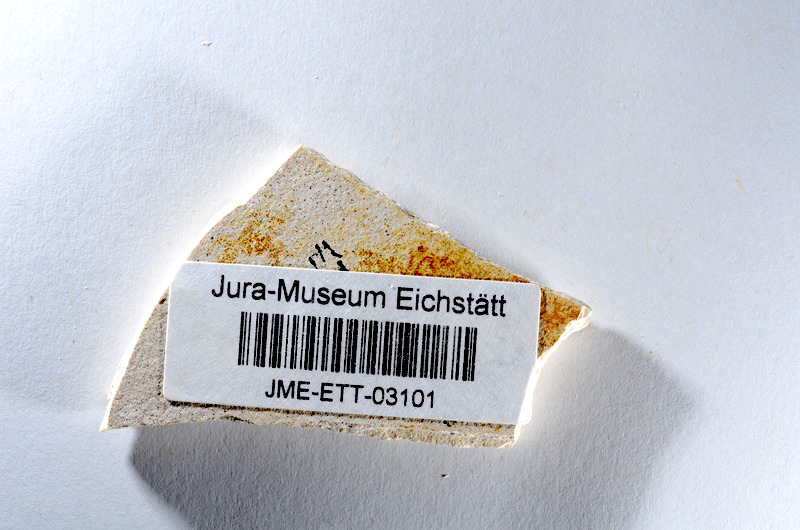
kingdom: Animalia
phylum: Chordata
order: Salmoniformes
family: Orthogonikleithridae
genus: Orthogonikleithrus
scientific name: Orthogonikleithrus hoelli
